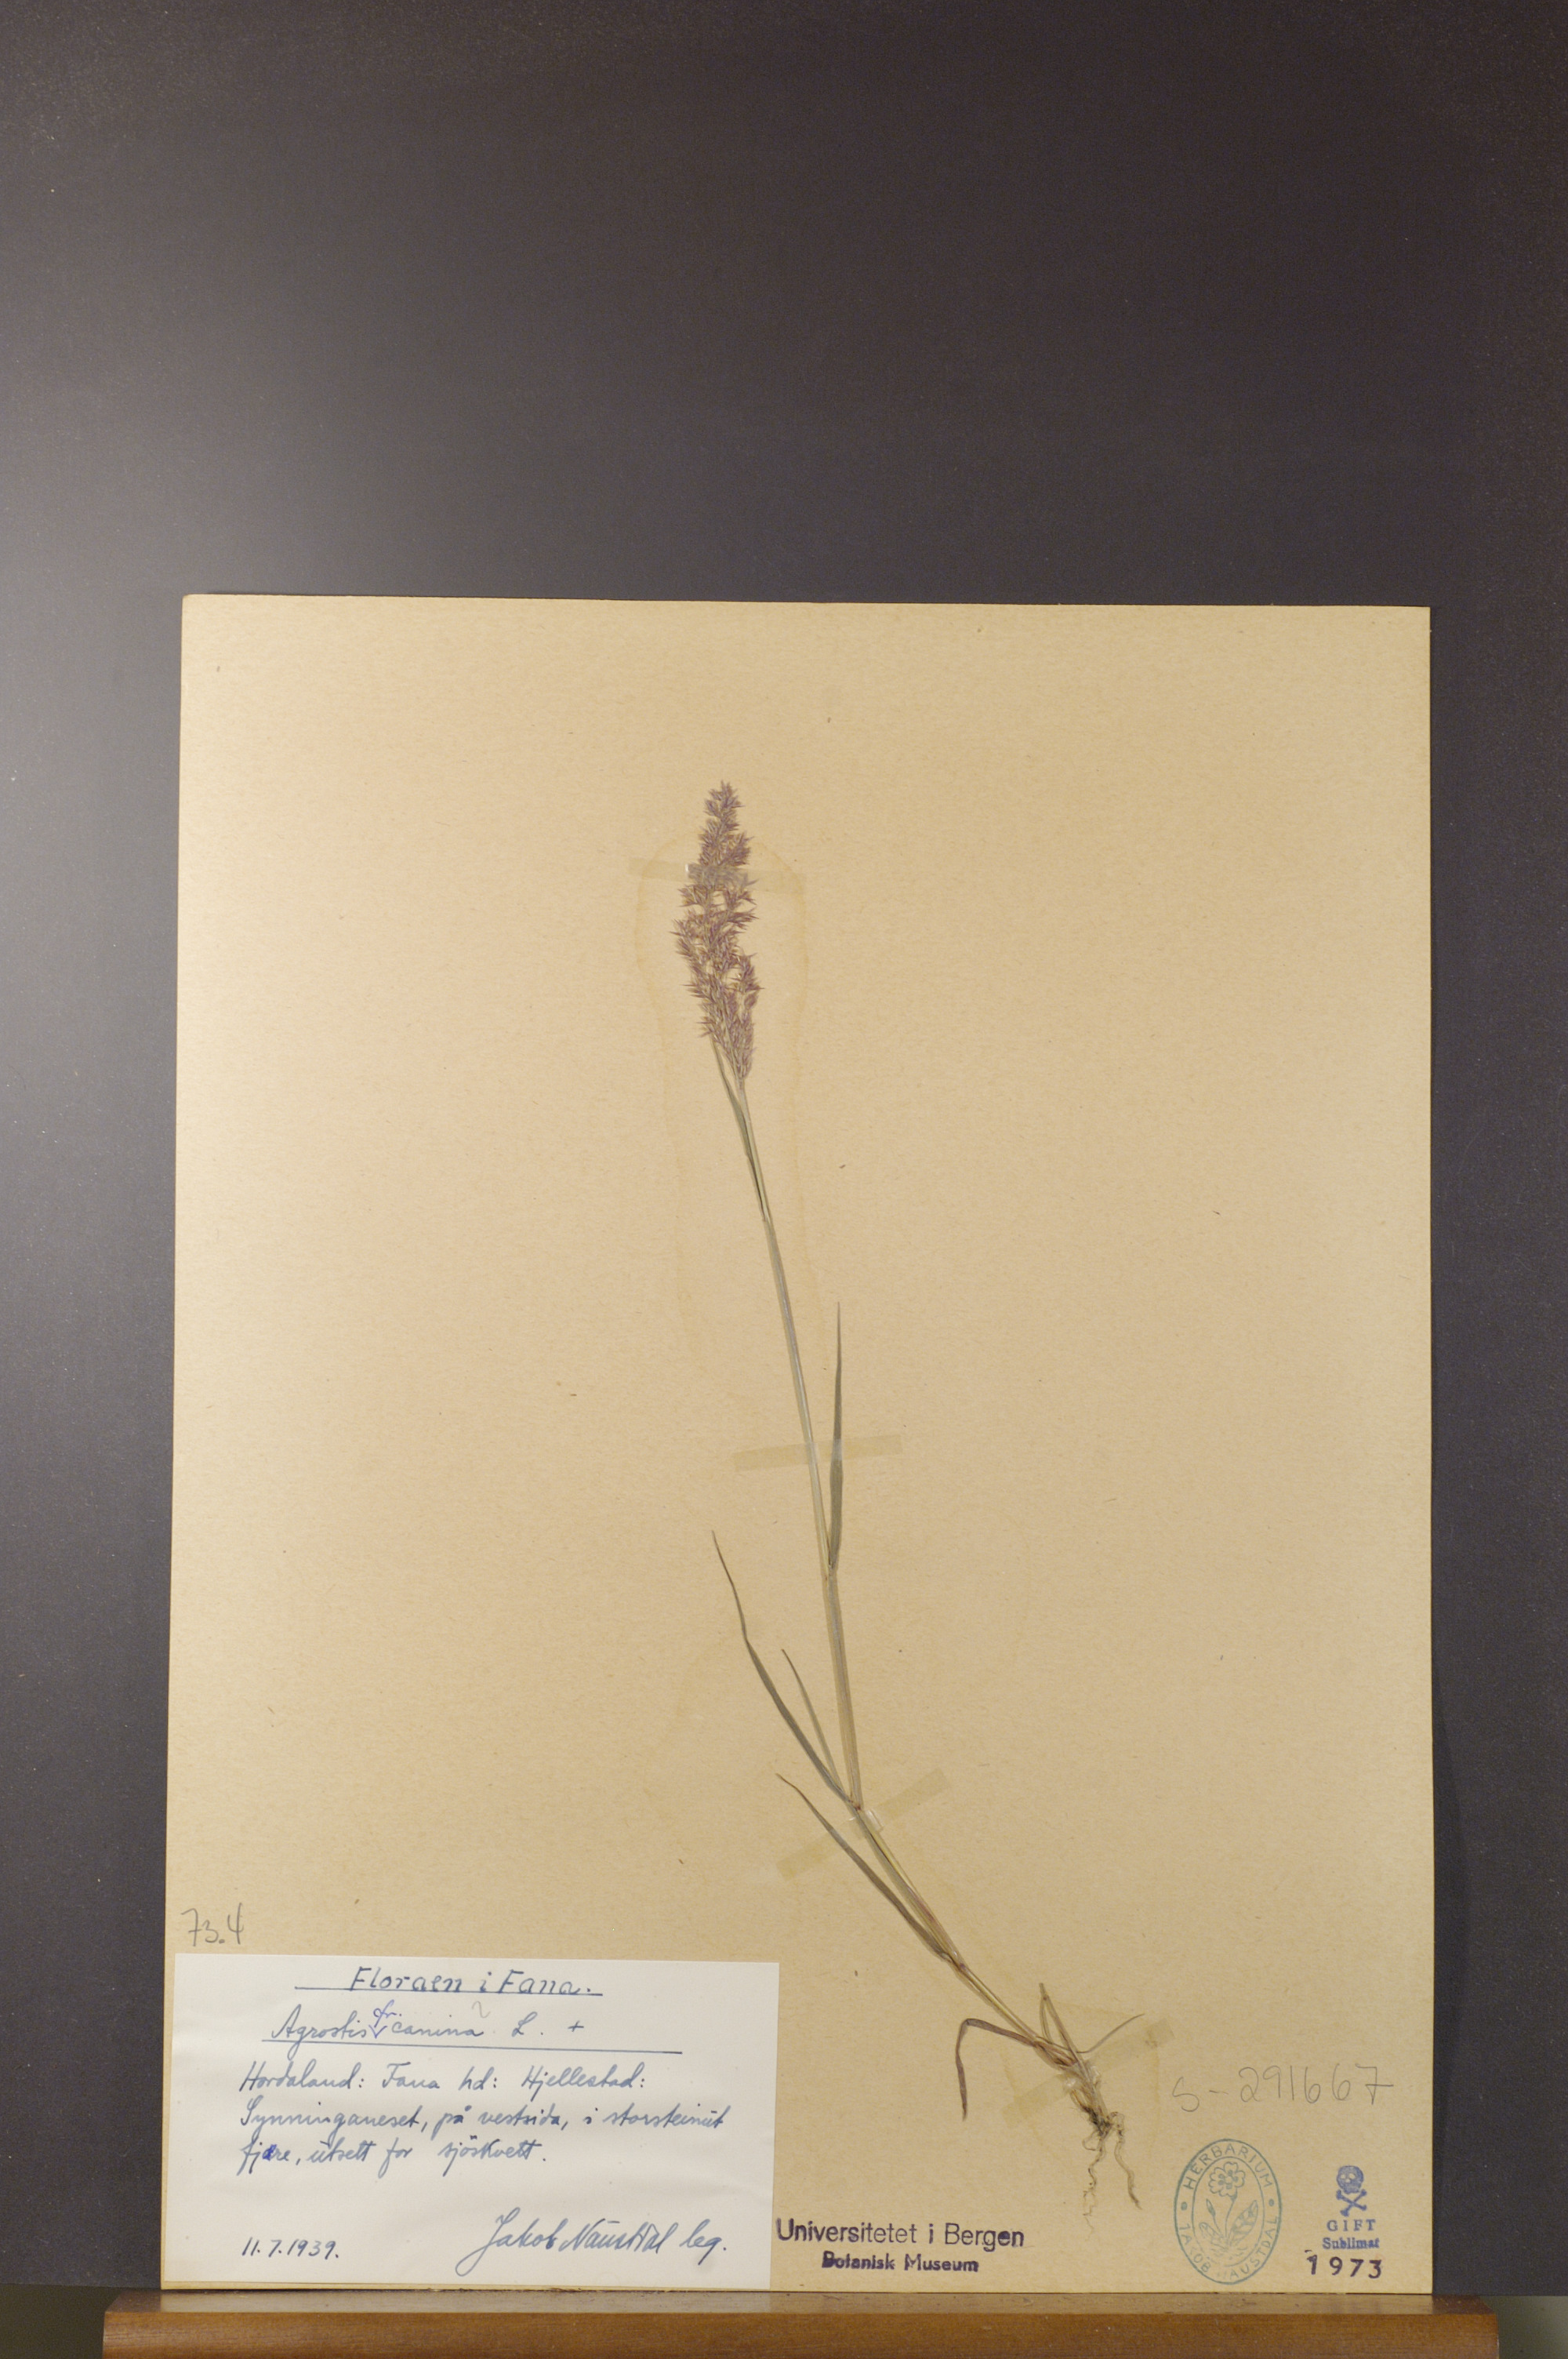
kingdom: Plantae
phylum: Tracheophyta
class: Liliopsida
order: Poales
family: Poaceae
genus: Agrostis
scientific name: Agrostis canina
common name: Velvet bent
